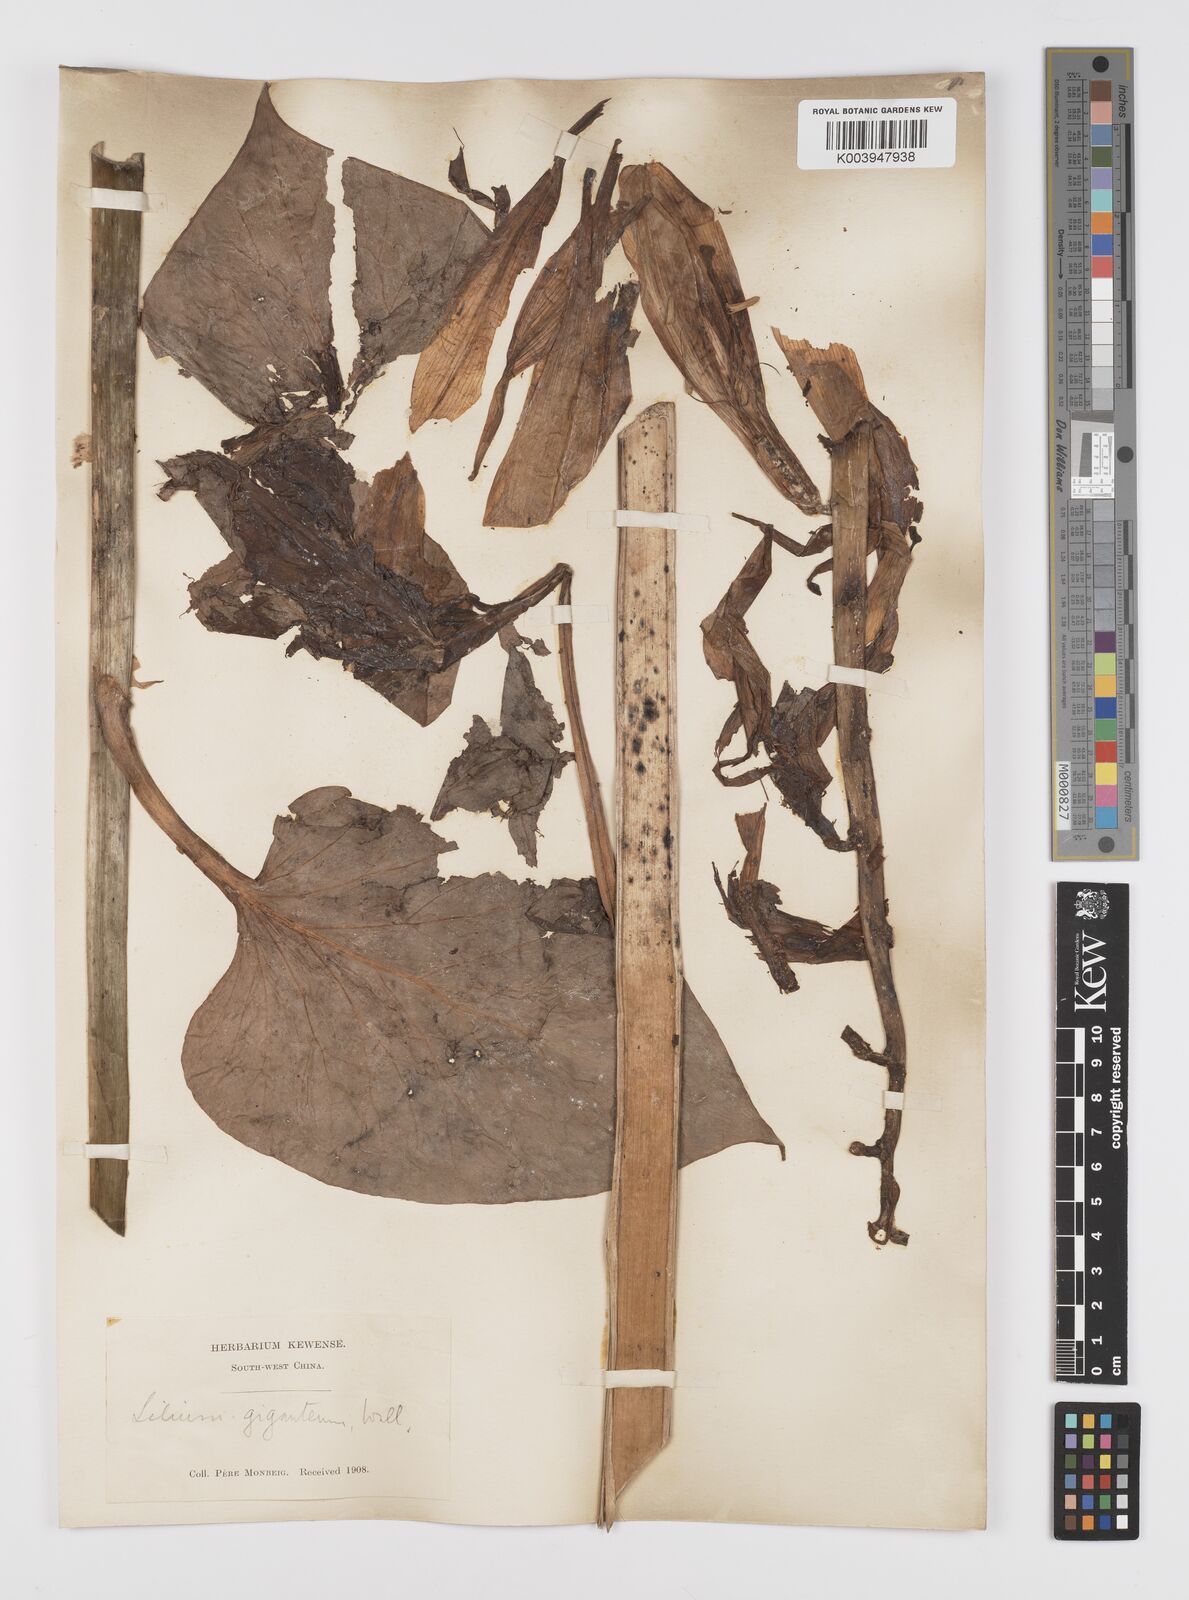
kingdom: Plantae
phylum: Tracheophyta
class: Liliopsida
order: Liliales
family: Liliaceae
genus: Cardiocrinum
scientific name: Cardiocrinum giganteum
